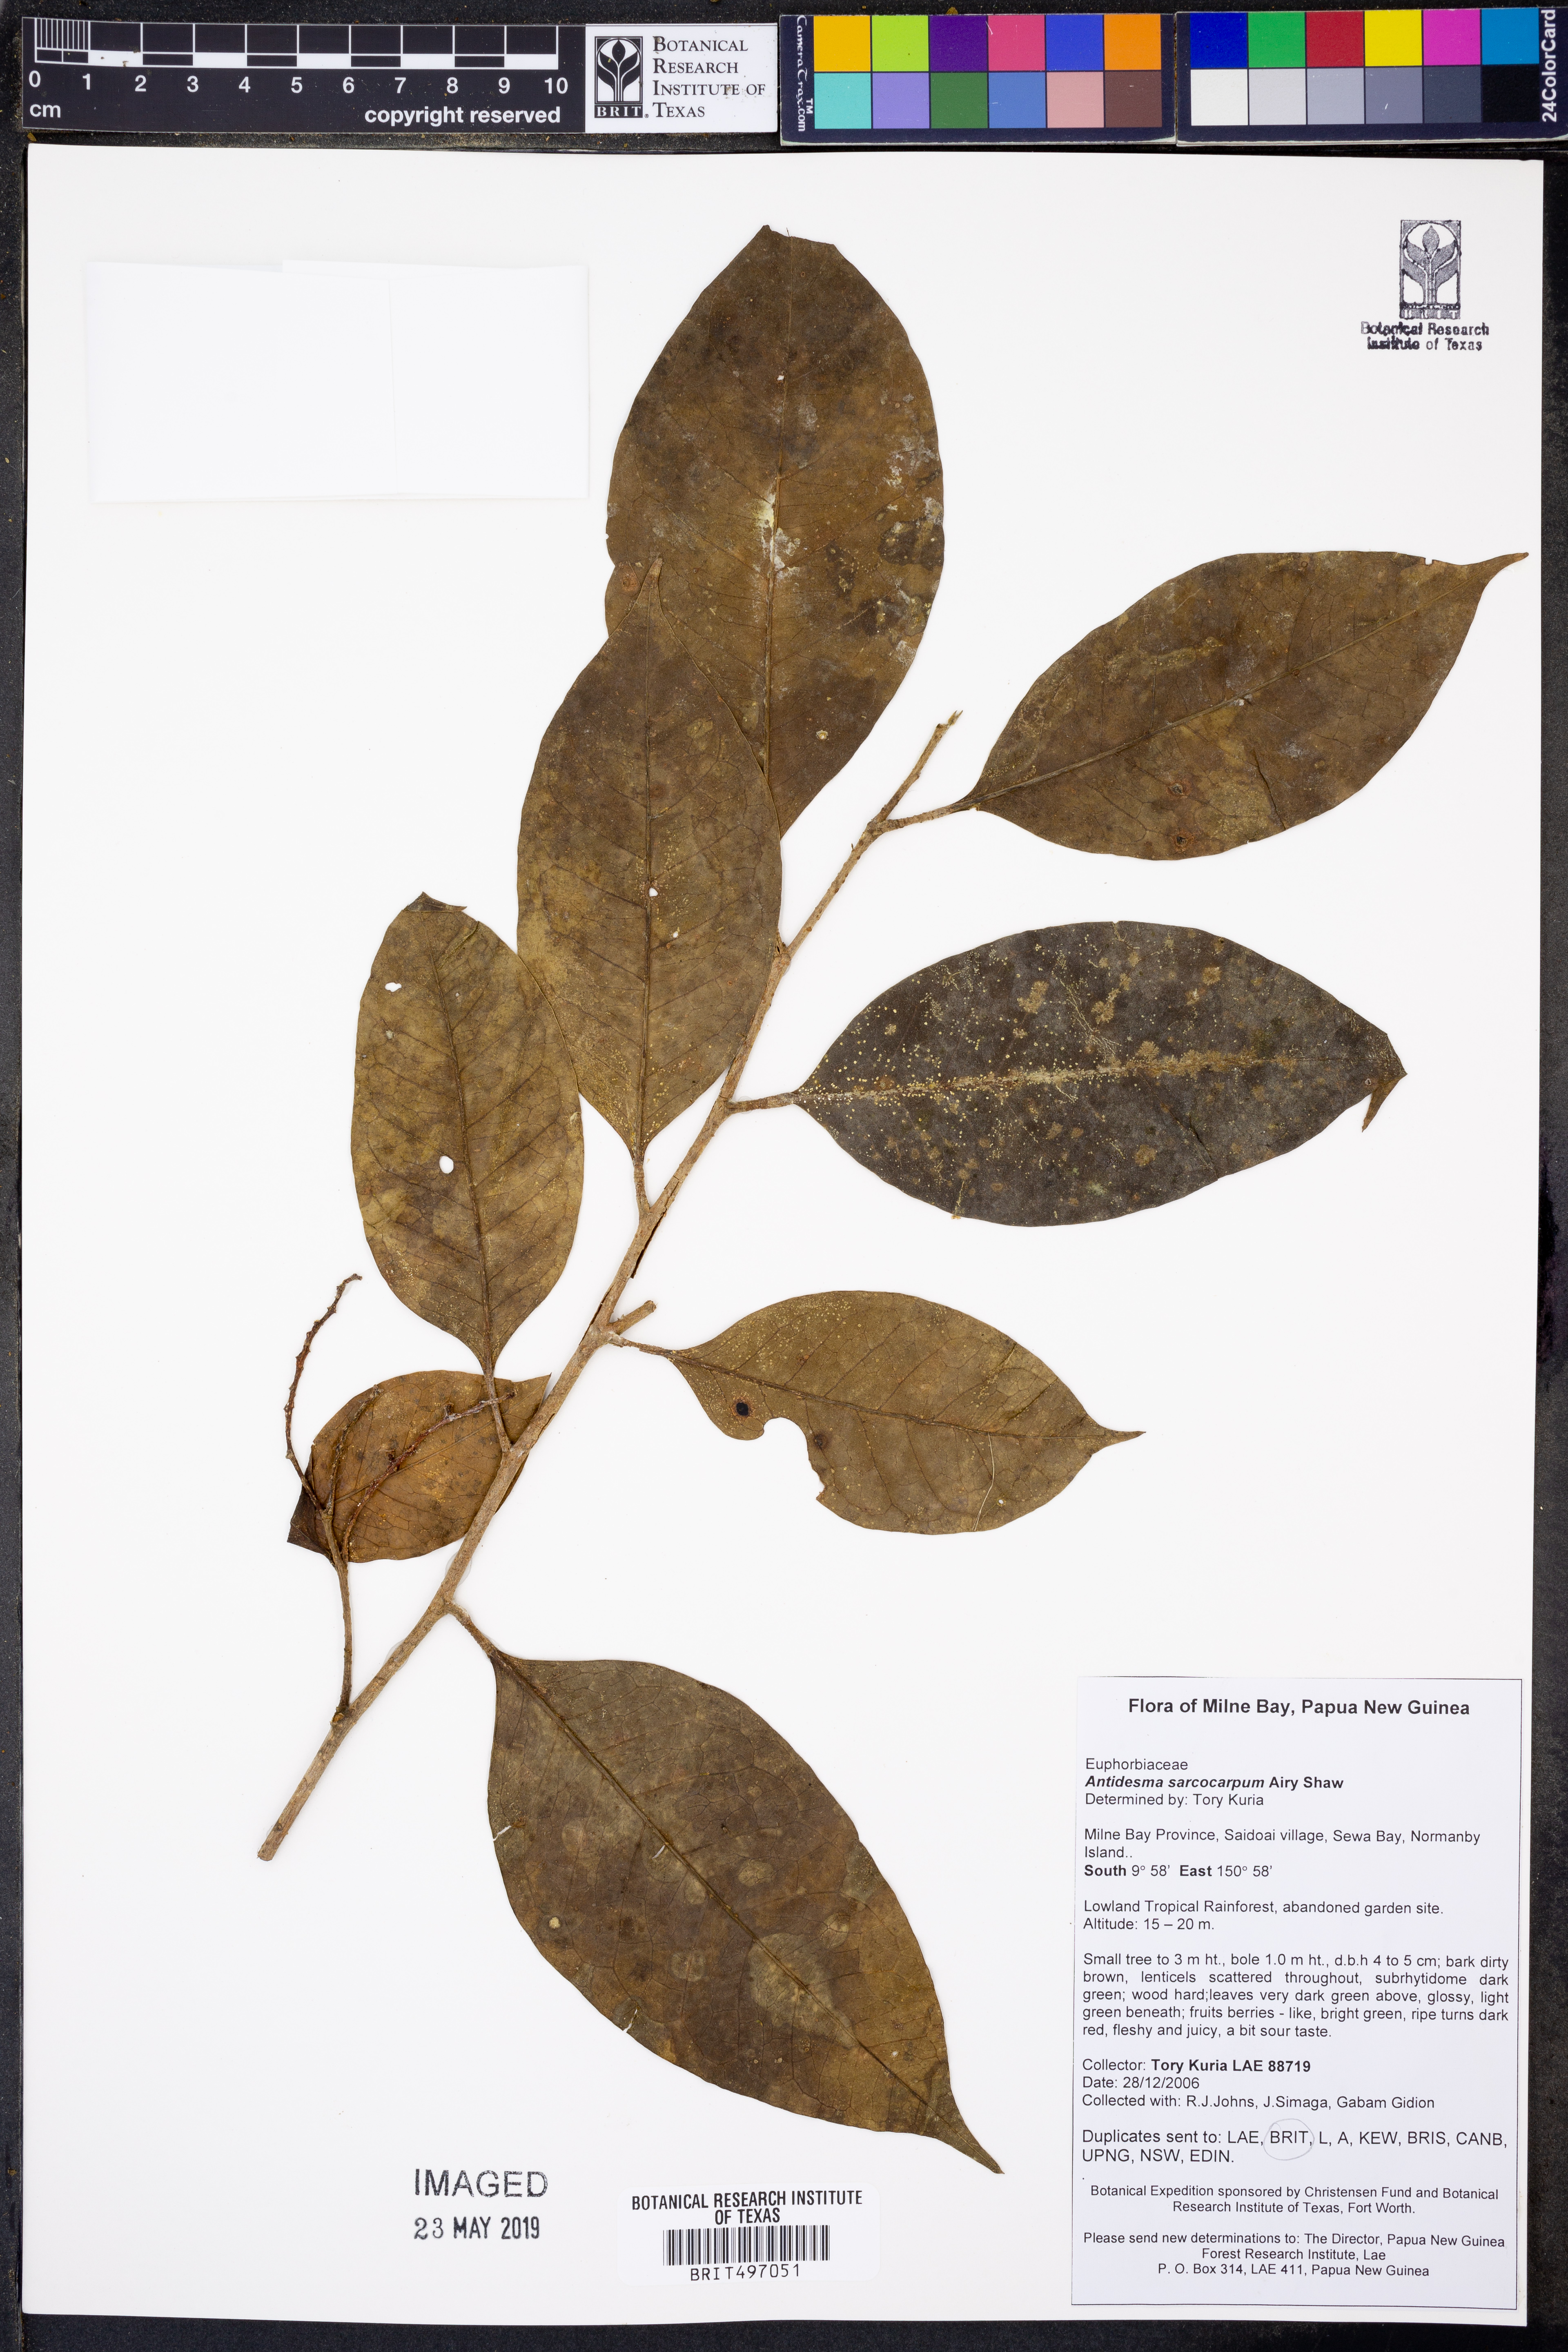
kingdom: Plantae
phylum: Tracheophyta
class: Magnoliopsida
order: Malpighiales
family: Phyllanthaceae
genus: Antidesma
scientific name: Antidesma excavatum
